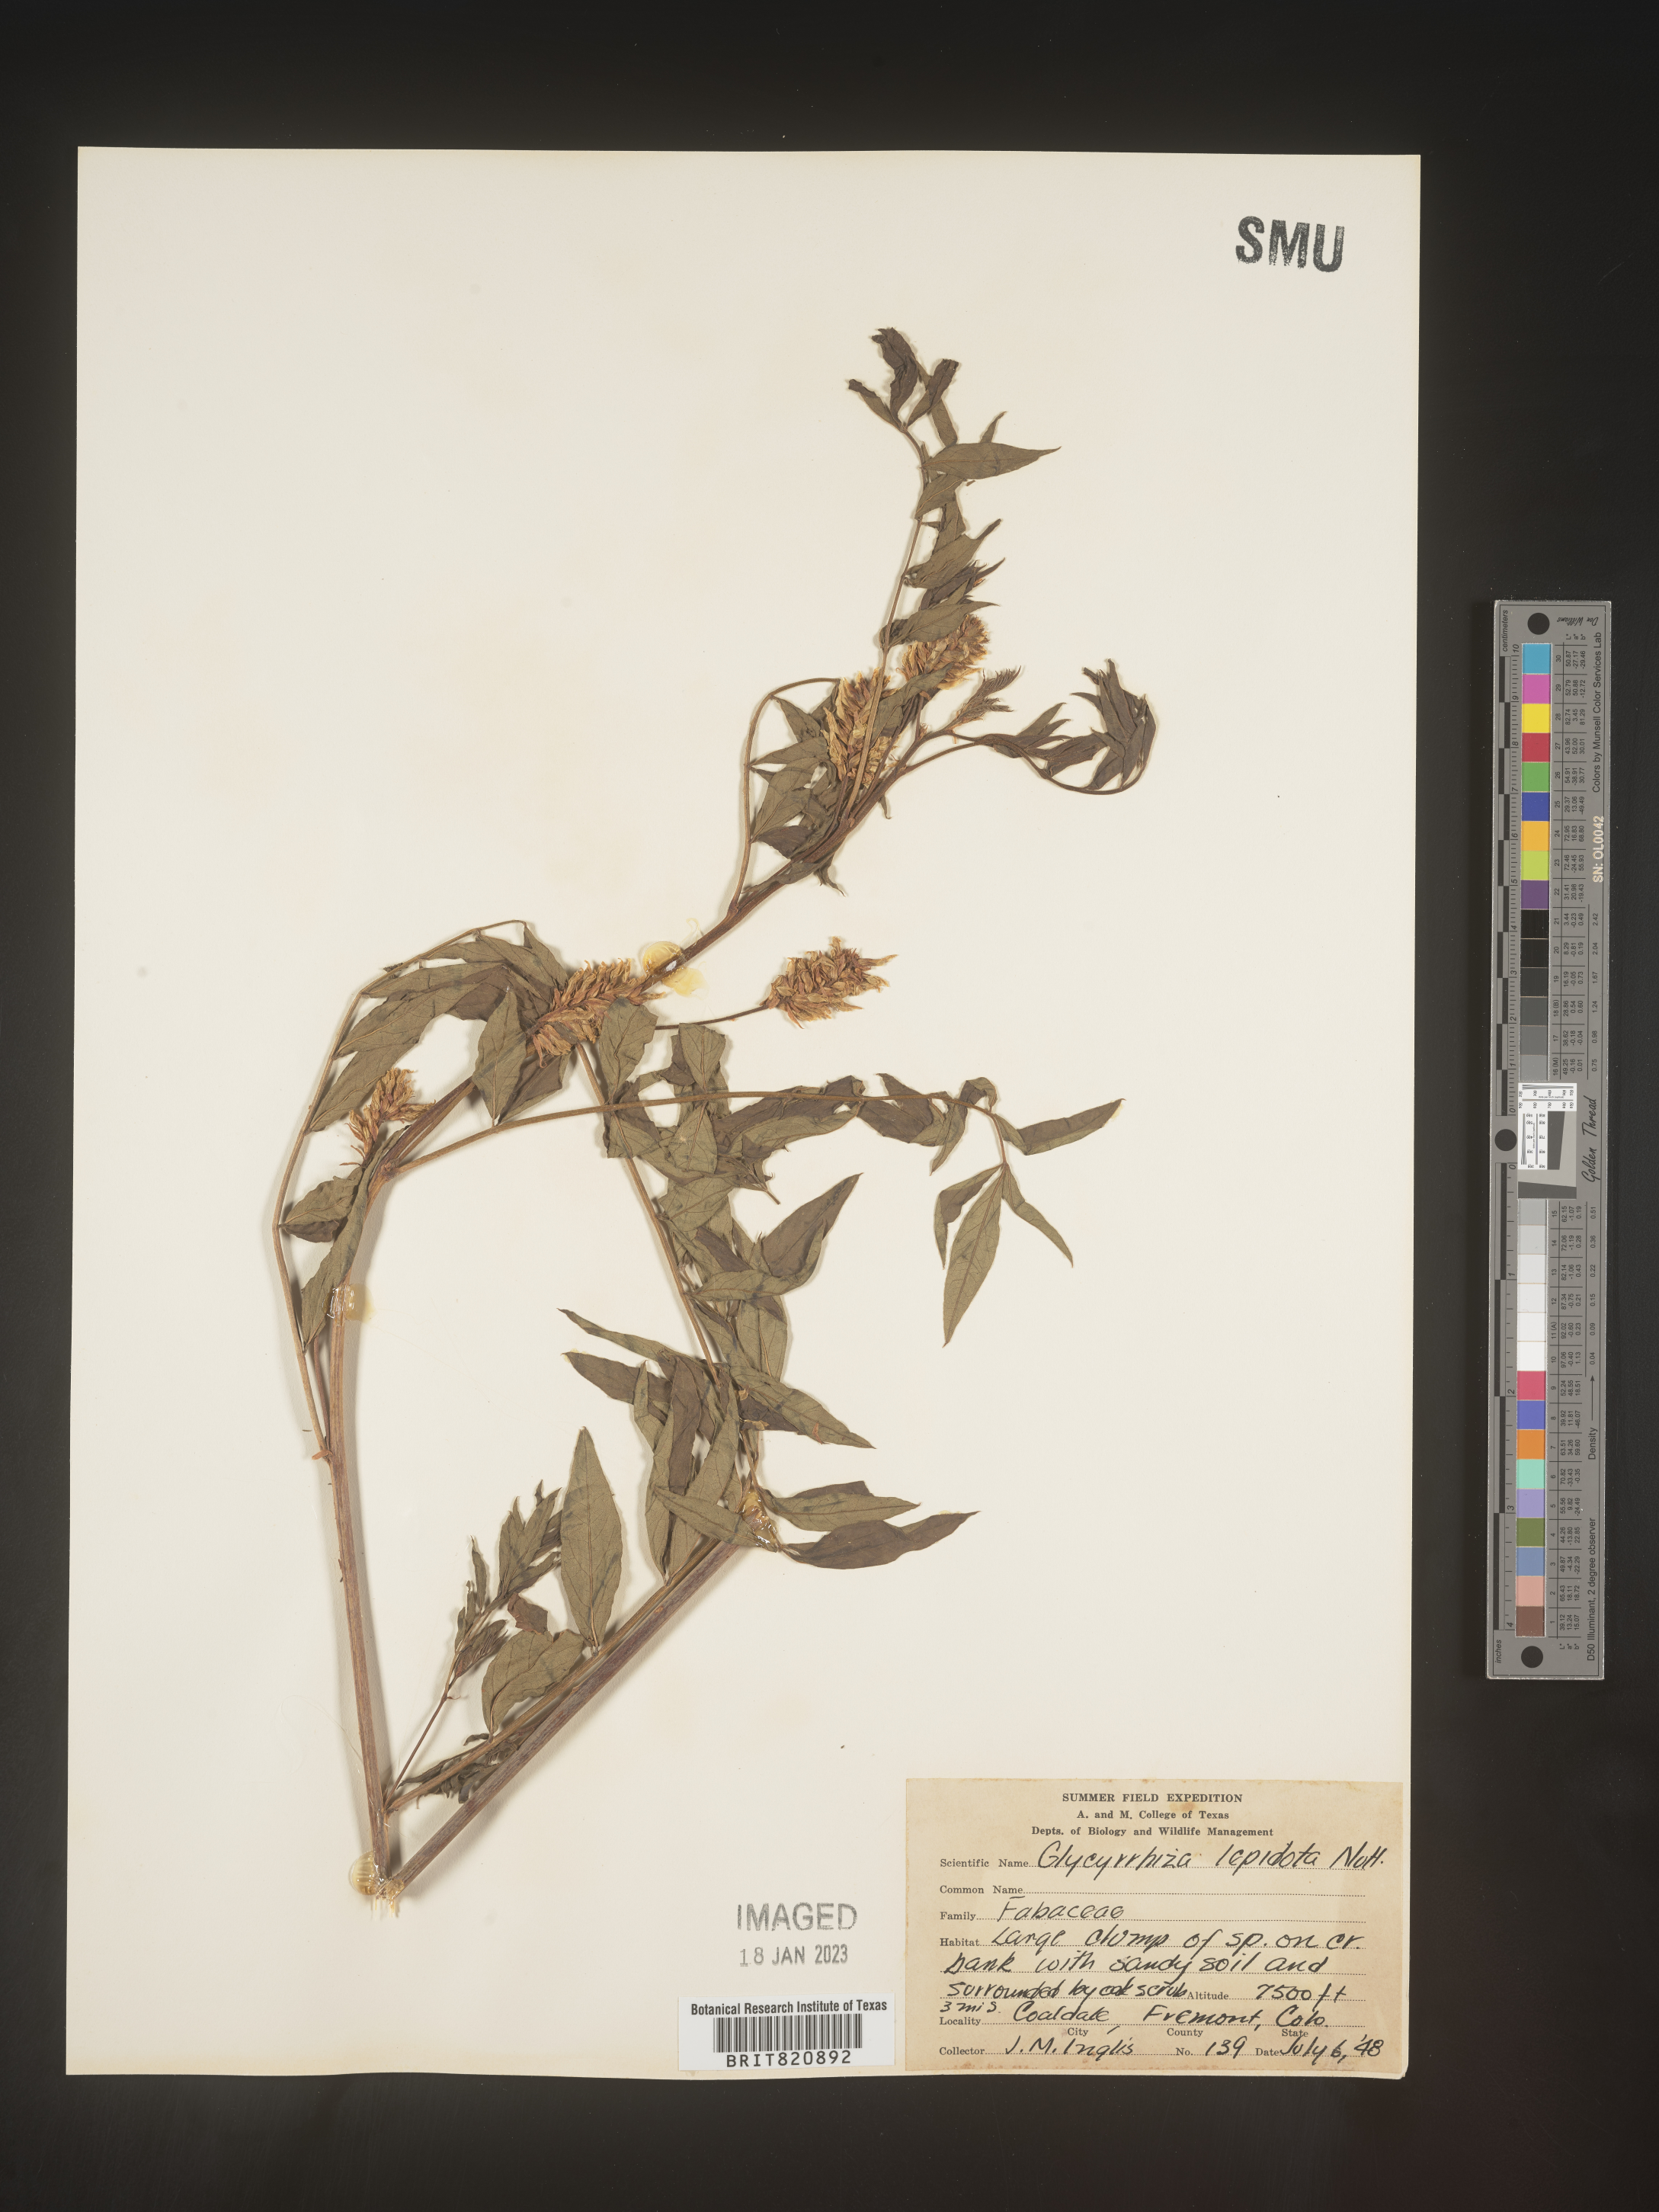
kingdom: Plantae
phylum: Tracheophyta
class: Magnoliopsida
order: Fabales
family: Fabaceae
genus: Glycyrrhiza
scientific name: Glycyrrhiza lepidota
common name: American liquorice
